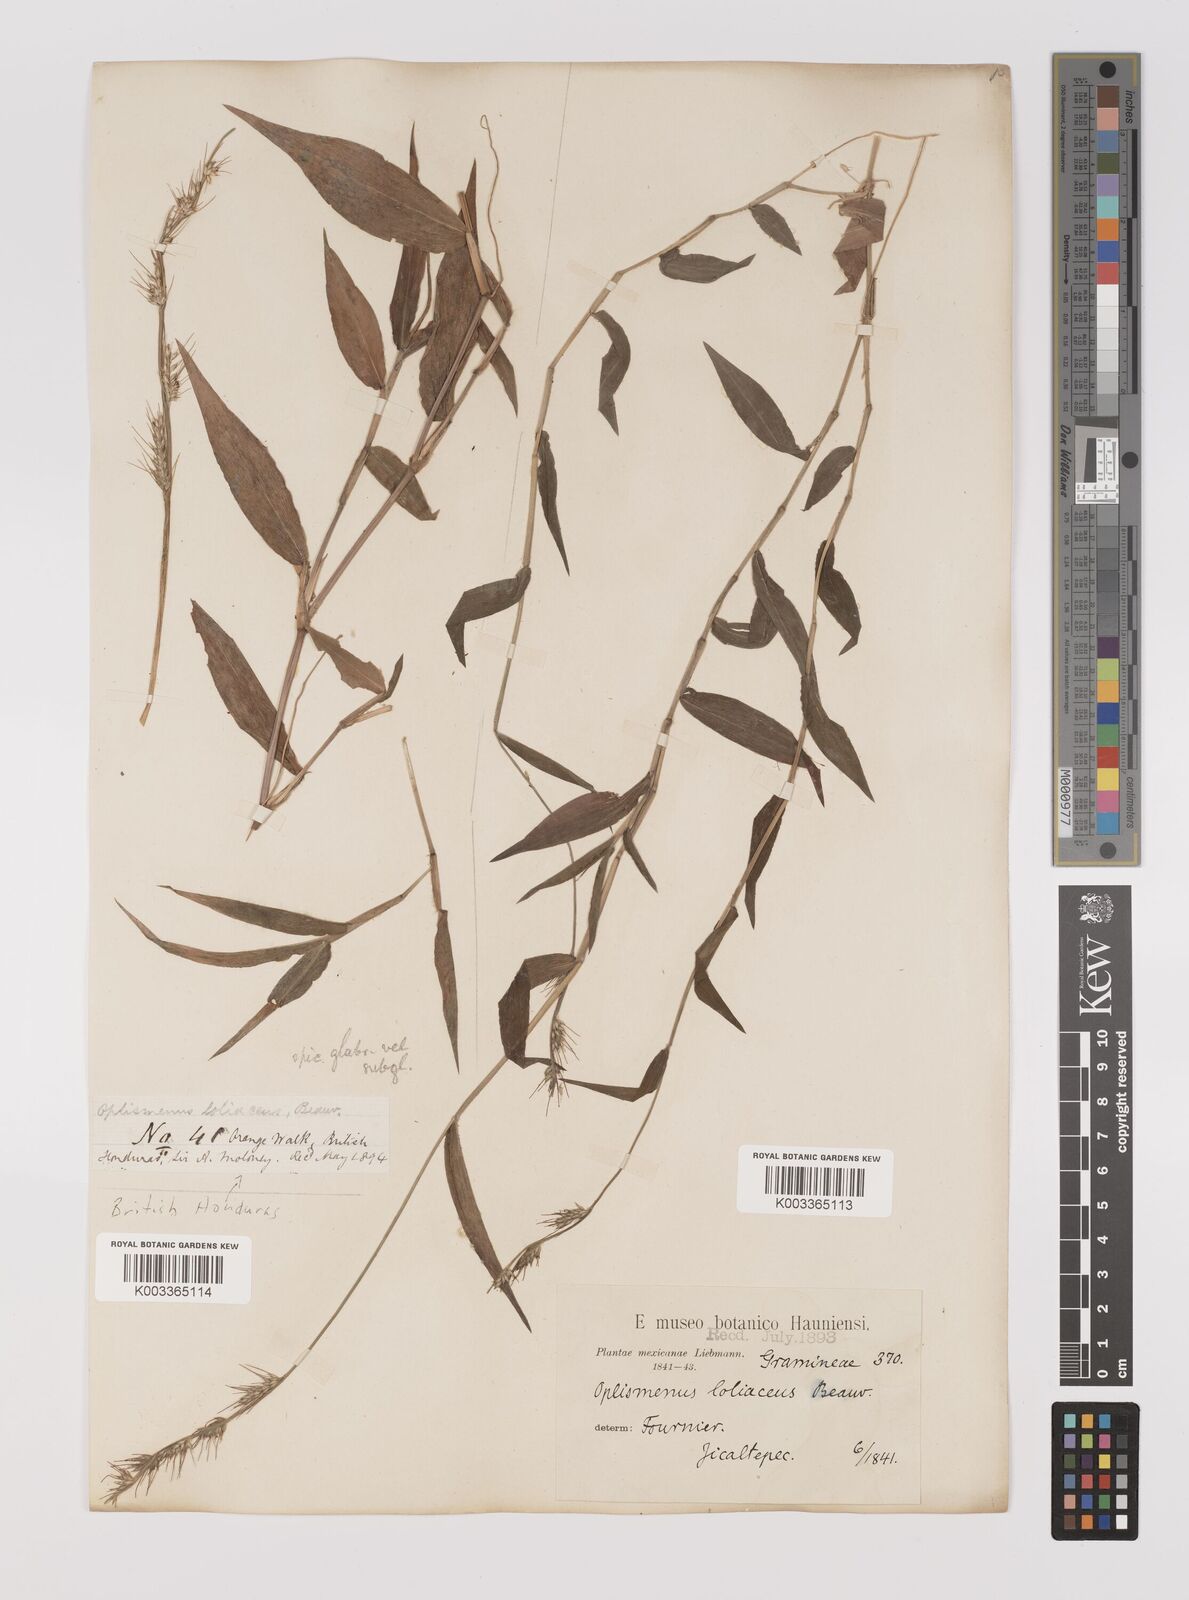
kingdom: Plantae
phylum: Tracheophyta
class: Liliopsida
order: Poales
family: Poaceae
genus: Oplismenus
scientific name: Oplismenus hirtellus
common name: Basketgrass
